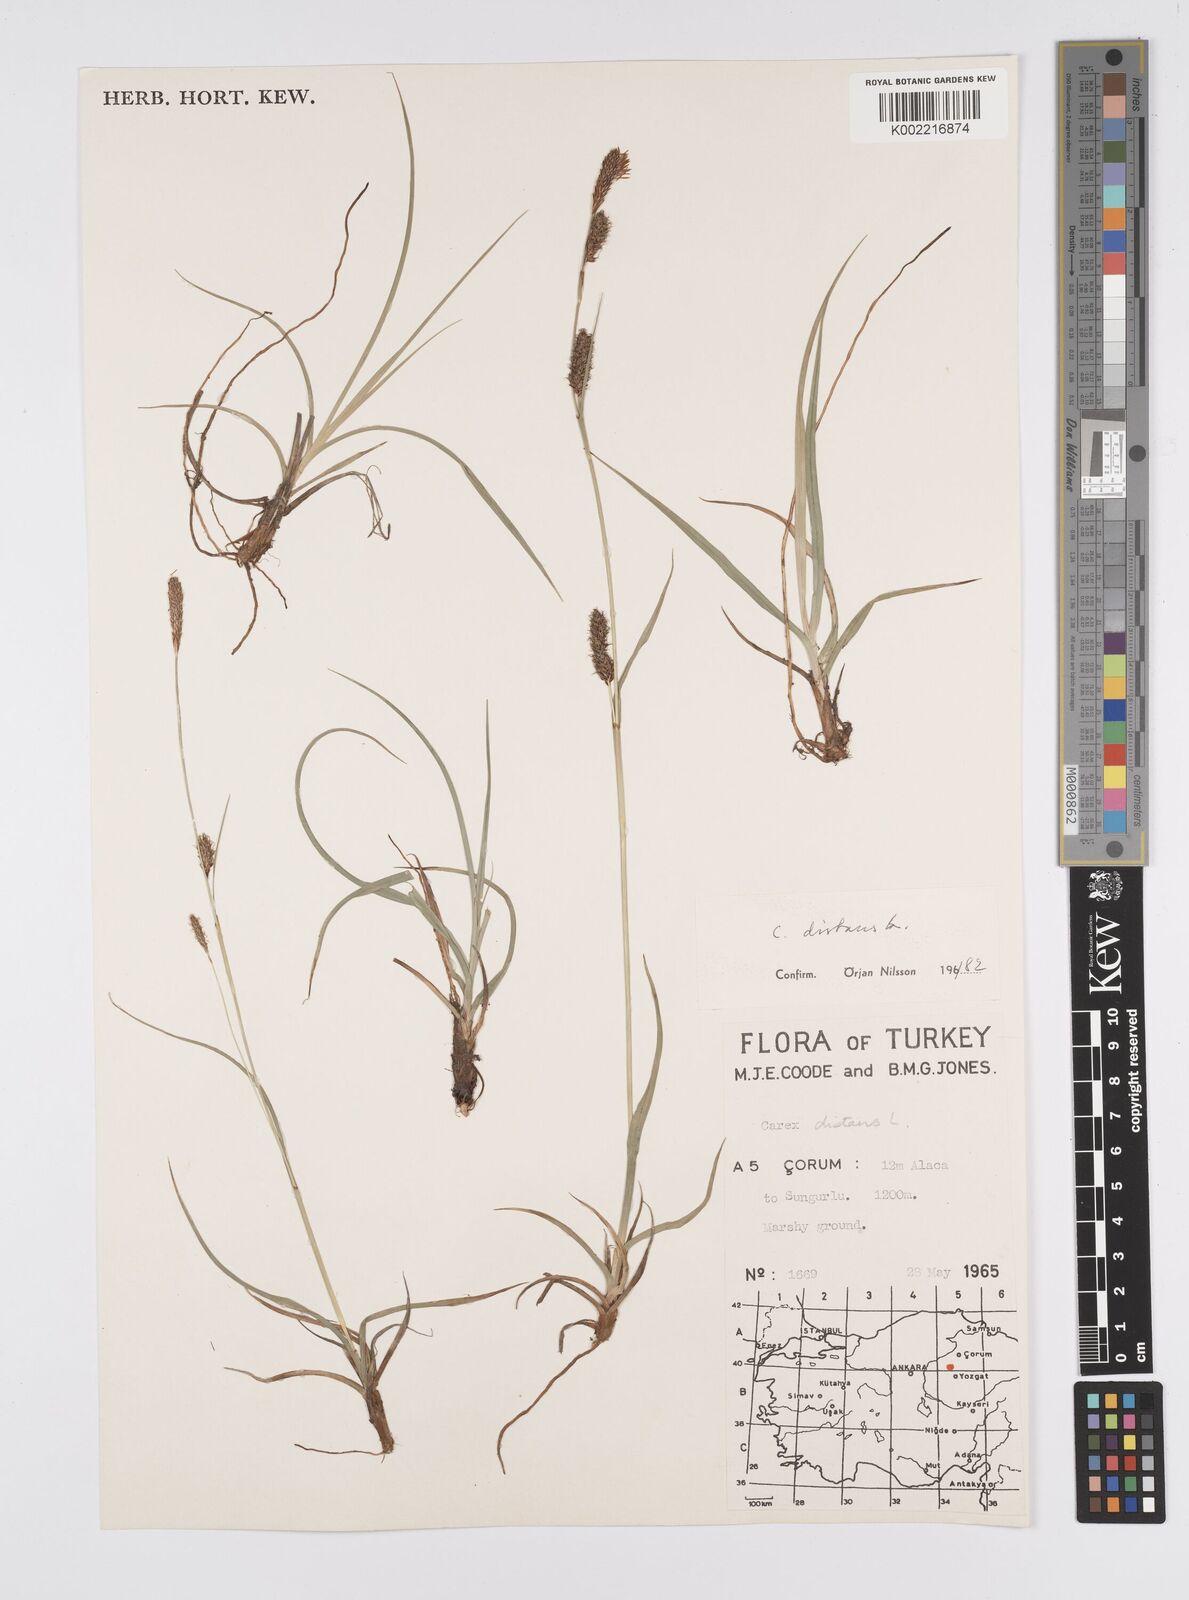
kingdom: Plantae
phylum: Tracheophyta
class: Liliopsida
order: Poales
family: Cyperaceae
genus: Carex
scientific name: Carex distans
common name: Distant sedge
